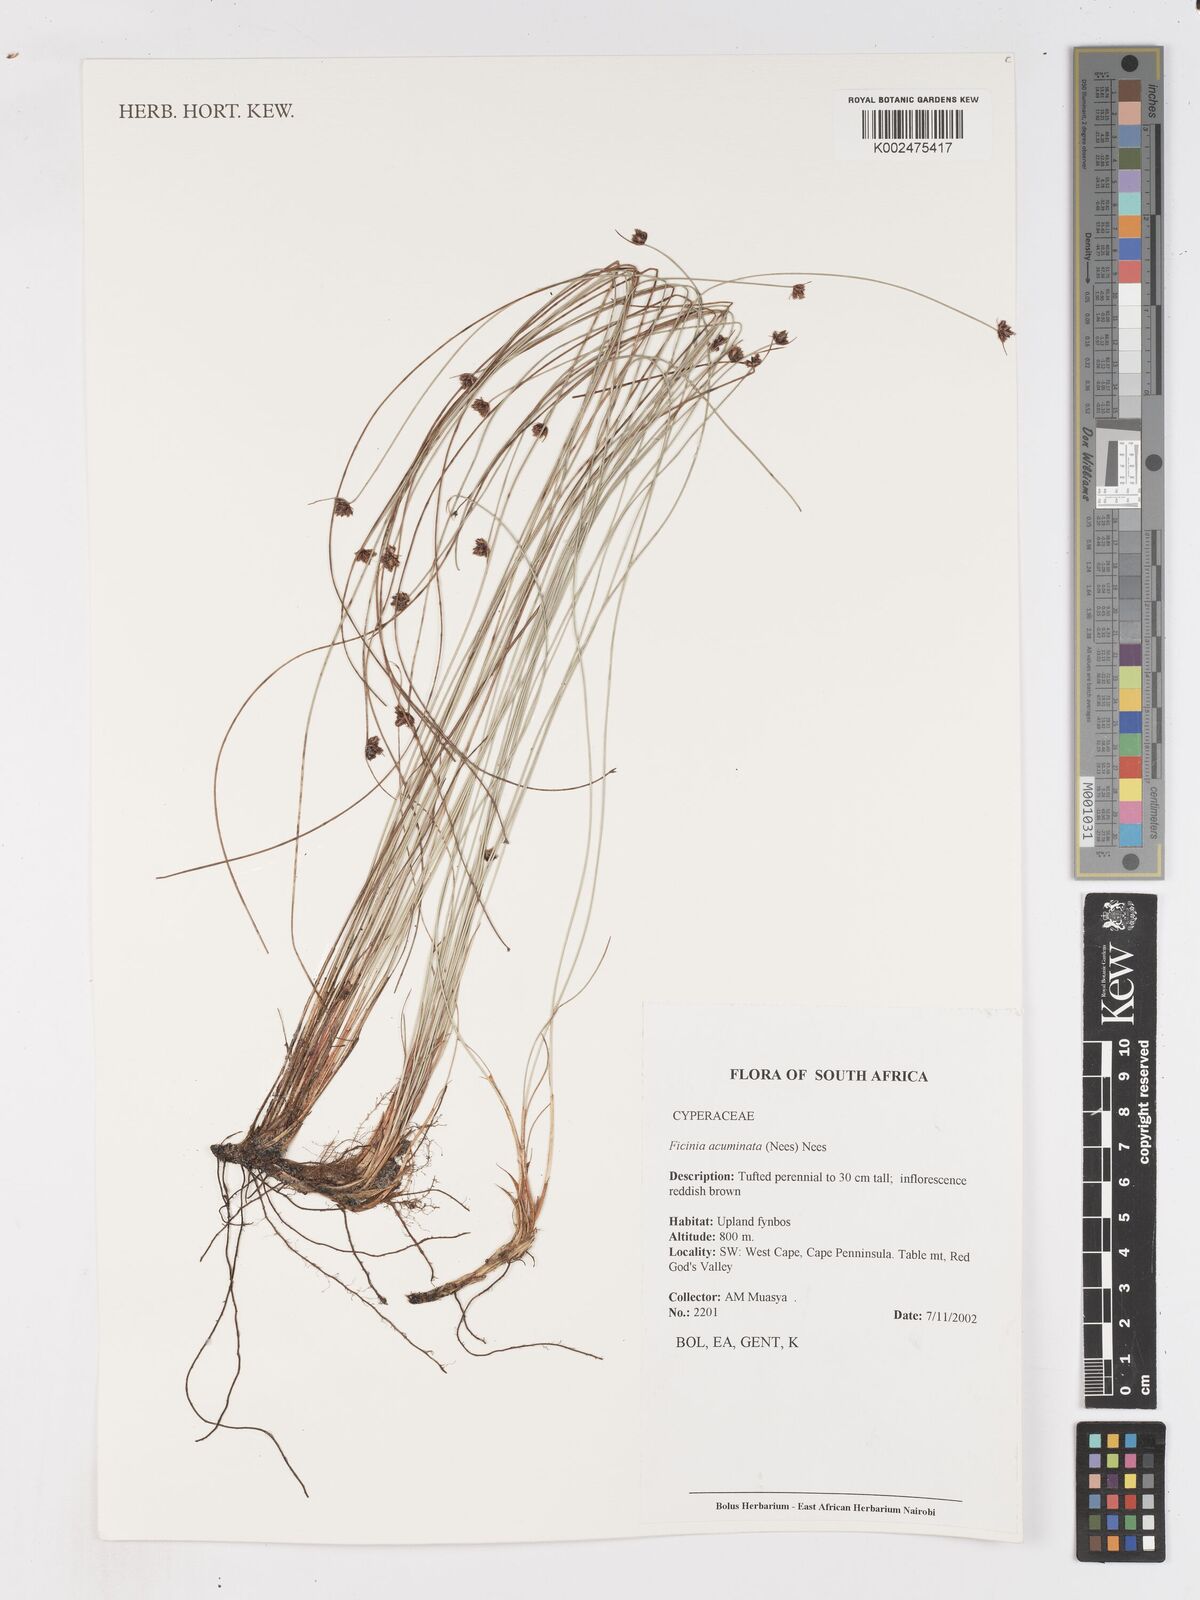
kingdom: Plantae
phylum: Tracheophyta
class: Liliopsida
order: Poales
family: Cyperaceae
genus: Ficinia
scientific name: Ficinia acuminata
